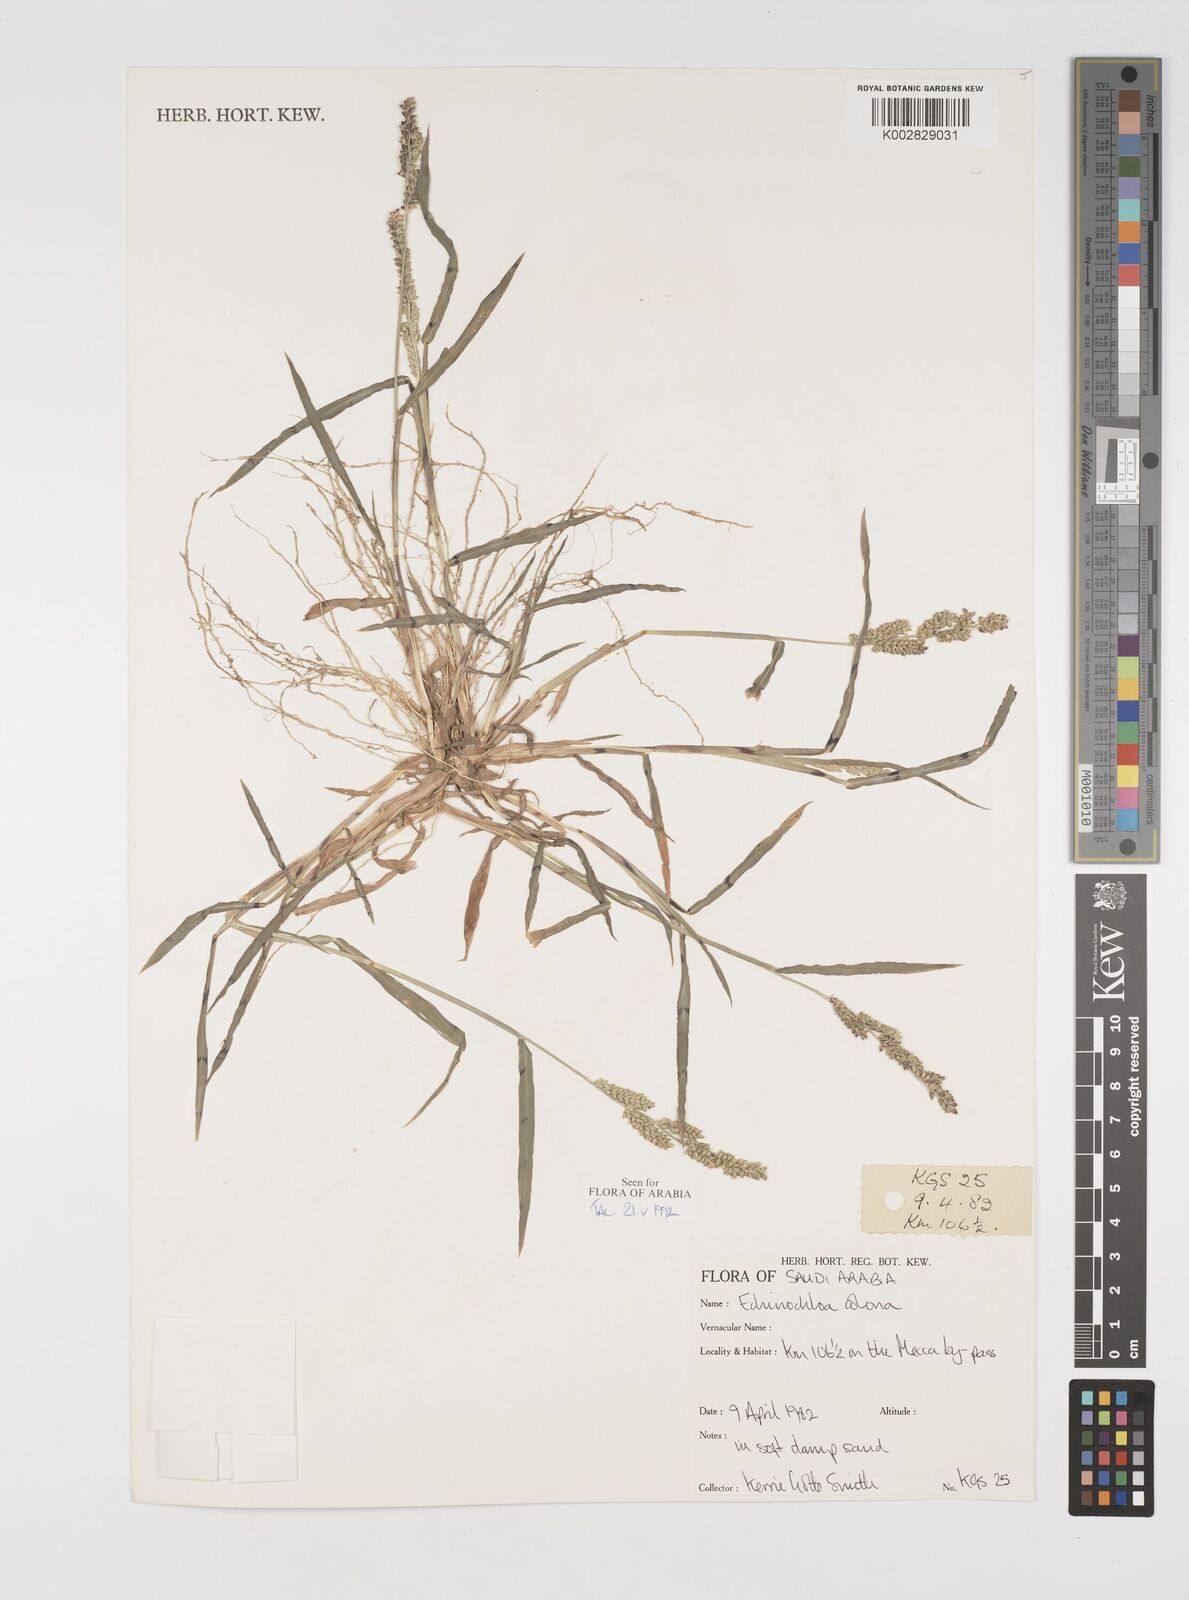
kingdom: Plantae
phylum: Tracheophyta
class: Liliopsida
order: Poales
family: Poaceae
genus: Echinochloa
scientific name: Echinochloa colonum
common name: Jungle rice
